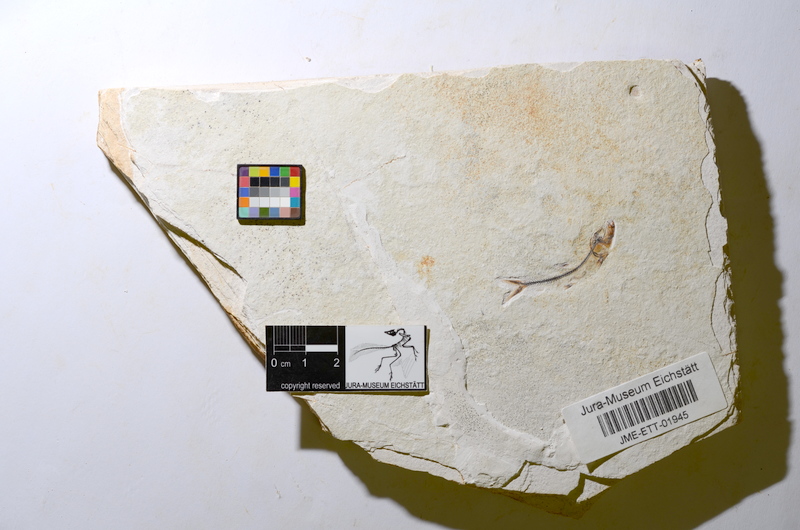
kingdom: Animalia
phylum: Chordata
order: Salmoniformes
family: Orthogonikleithridae
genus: Orthogonikleithrus
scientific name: Orthogonikleithrus hoelli
